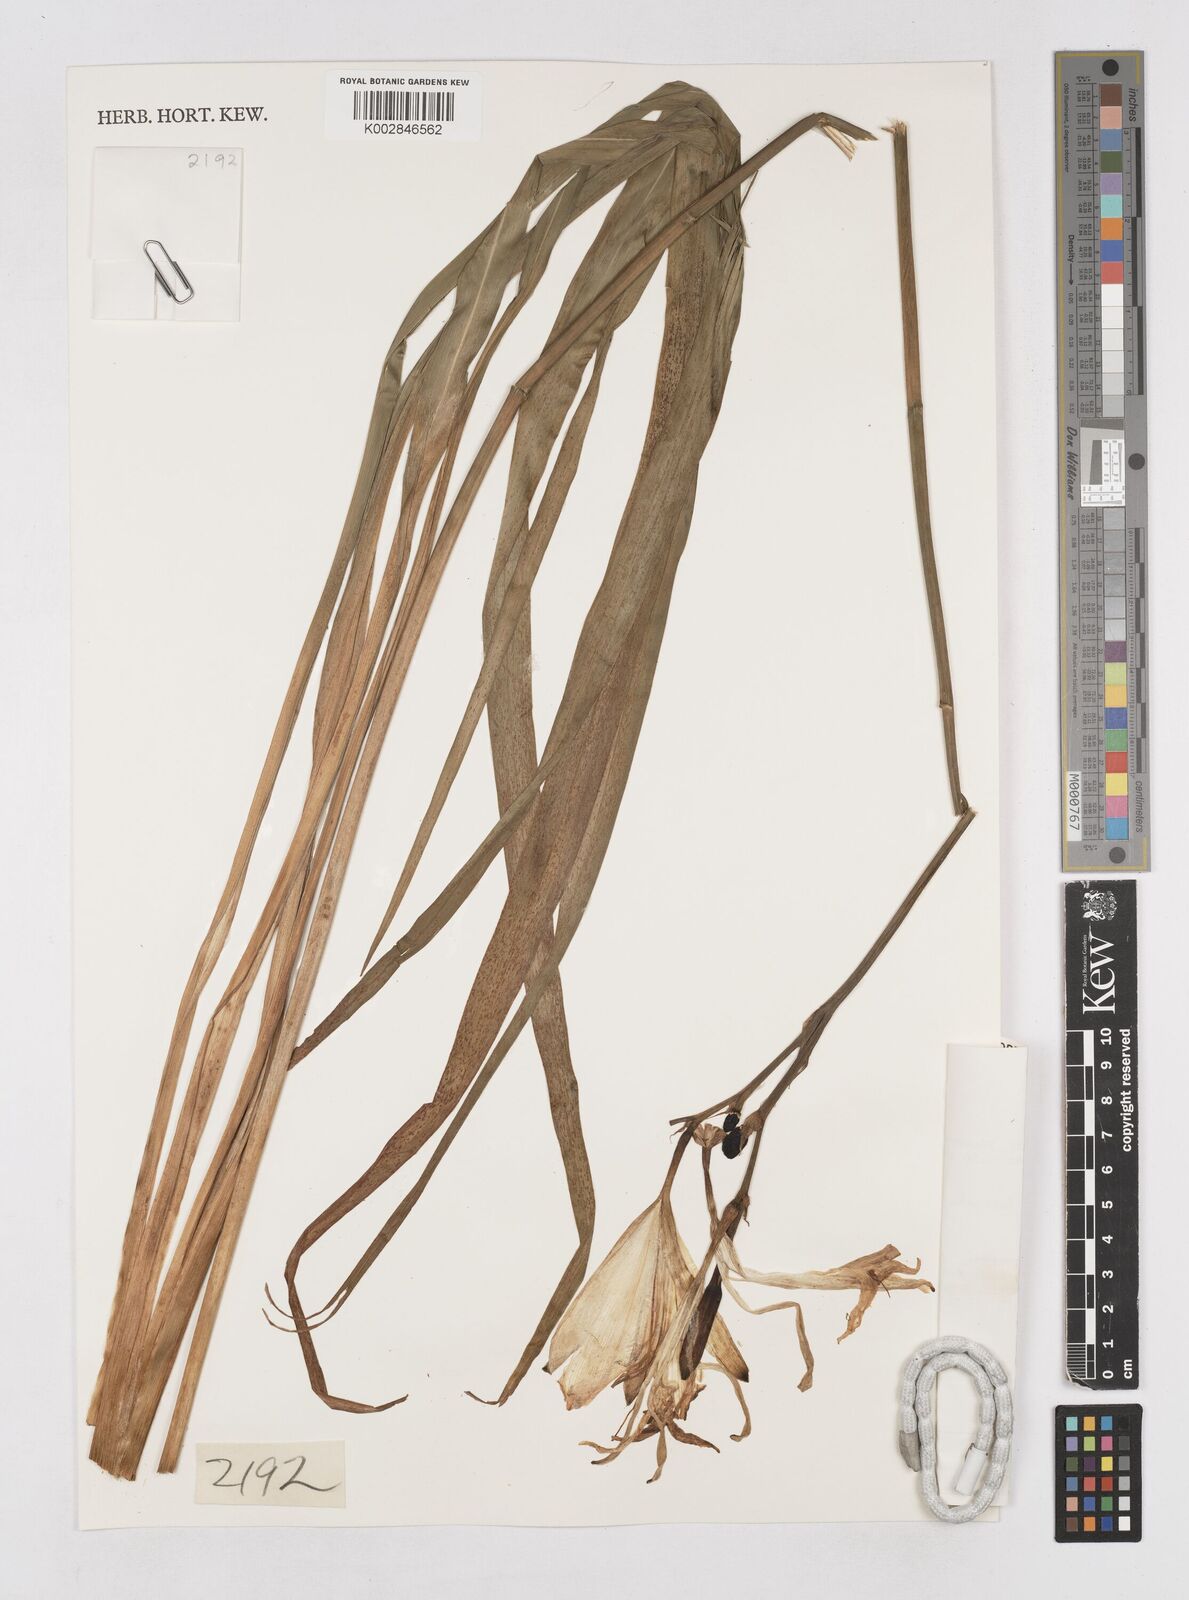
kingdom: Plantae
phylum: Tracheophyta
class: Liliopsida
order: Asparagales
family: Asphodelaceae
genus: Hemerocallis
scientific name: Hemerocallis thunbergii
